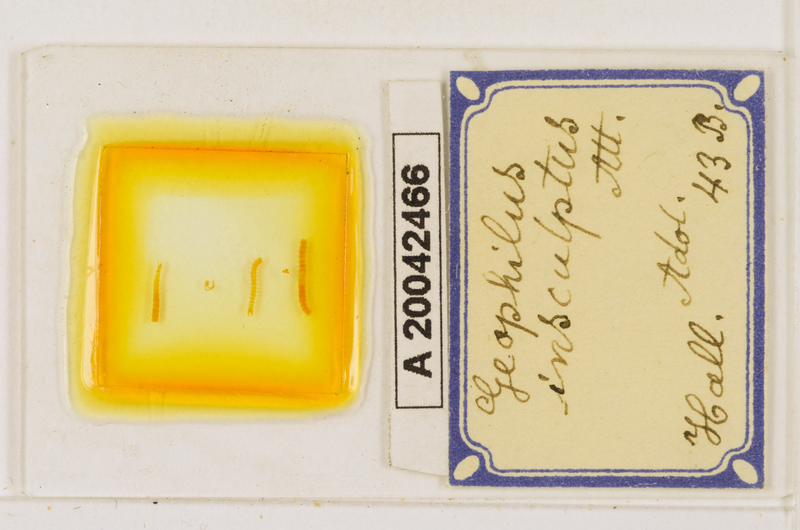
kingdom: Animalia
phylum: Arthropoda
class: Chilopoda
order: Geophilomorpha
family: Geophilidae
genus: Geophilus
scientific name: Geophilus insculptus
